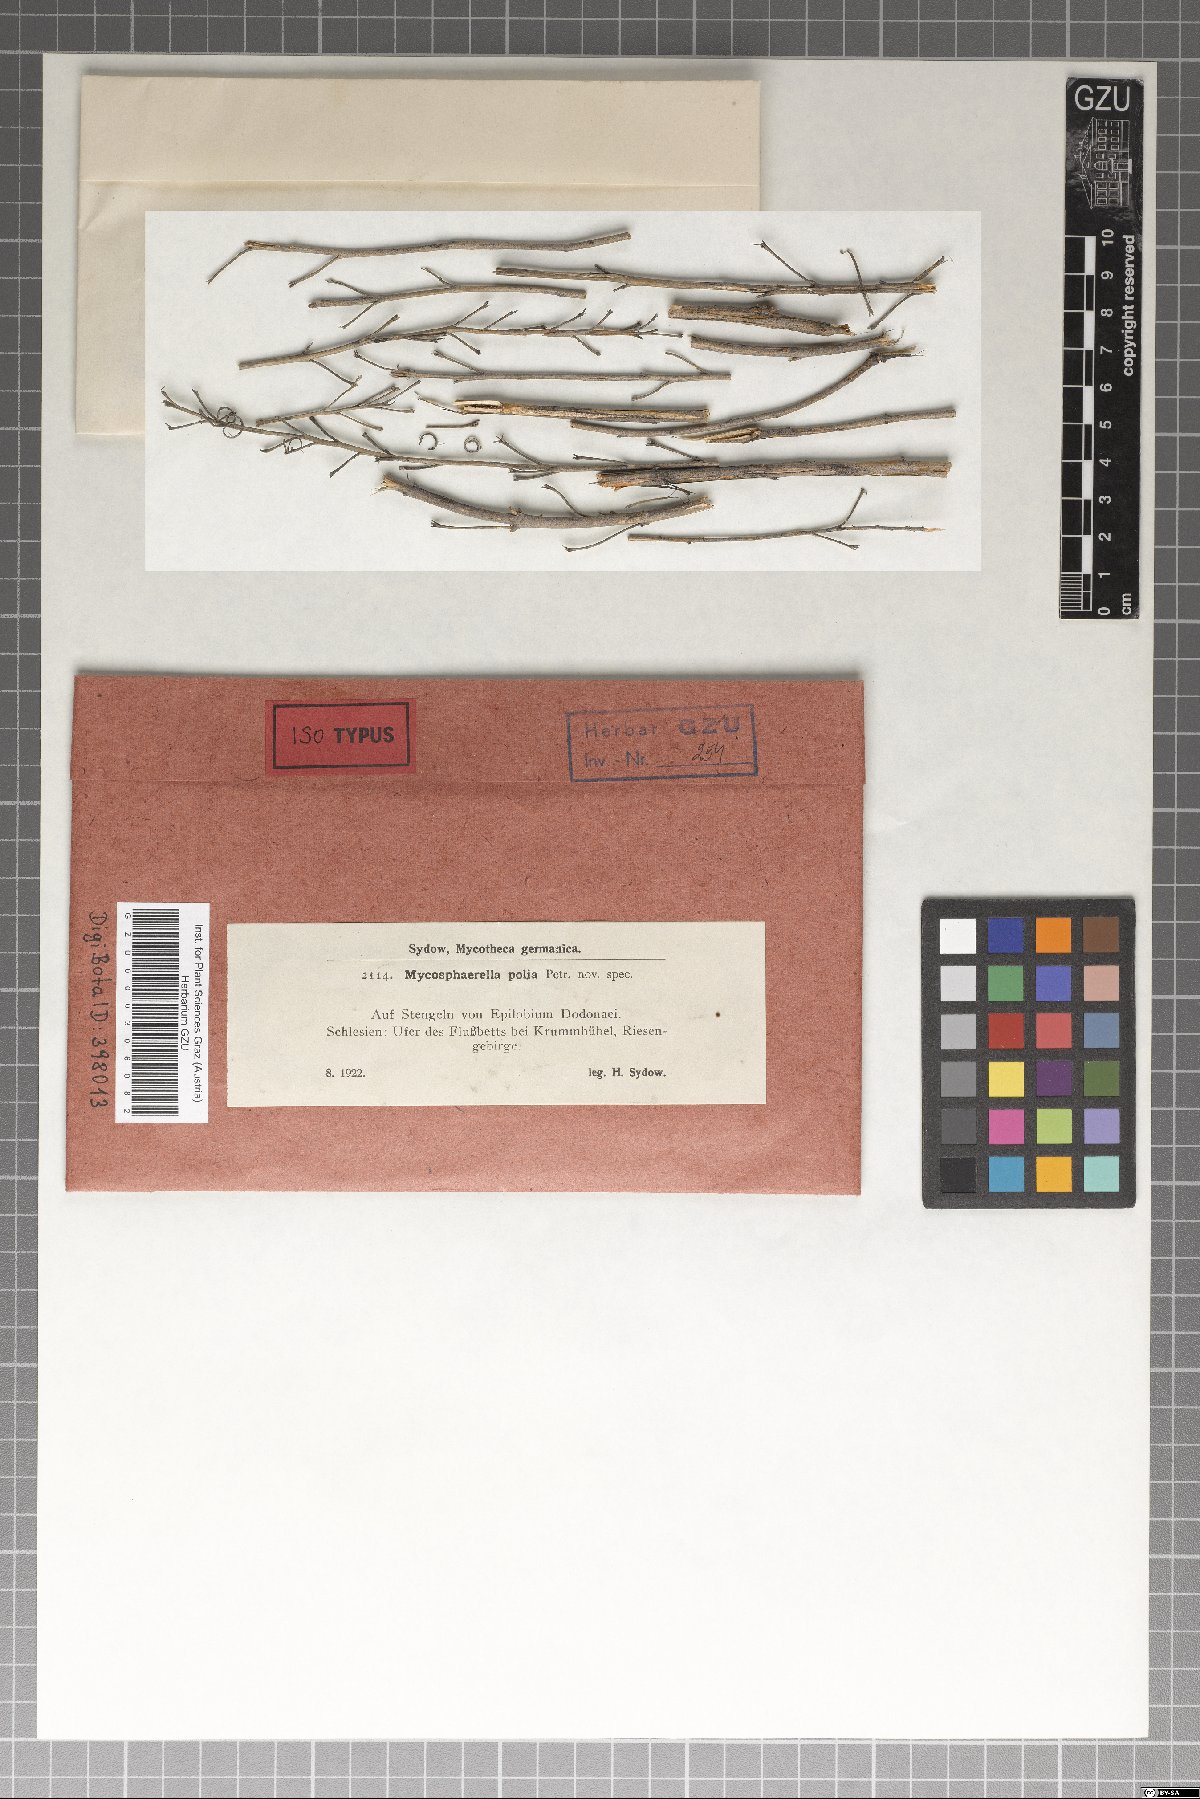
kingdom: Fungi
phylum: Ascomycota
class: Dothideomycetes
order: Mycosphaerellales
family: Mycosphaerellaceae
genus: Mycosphaerella
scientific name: Mycosphaerella polia
